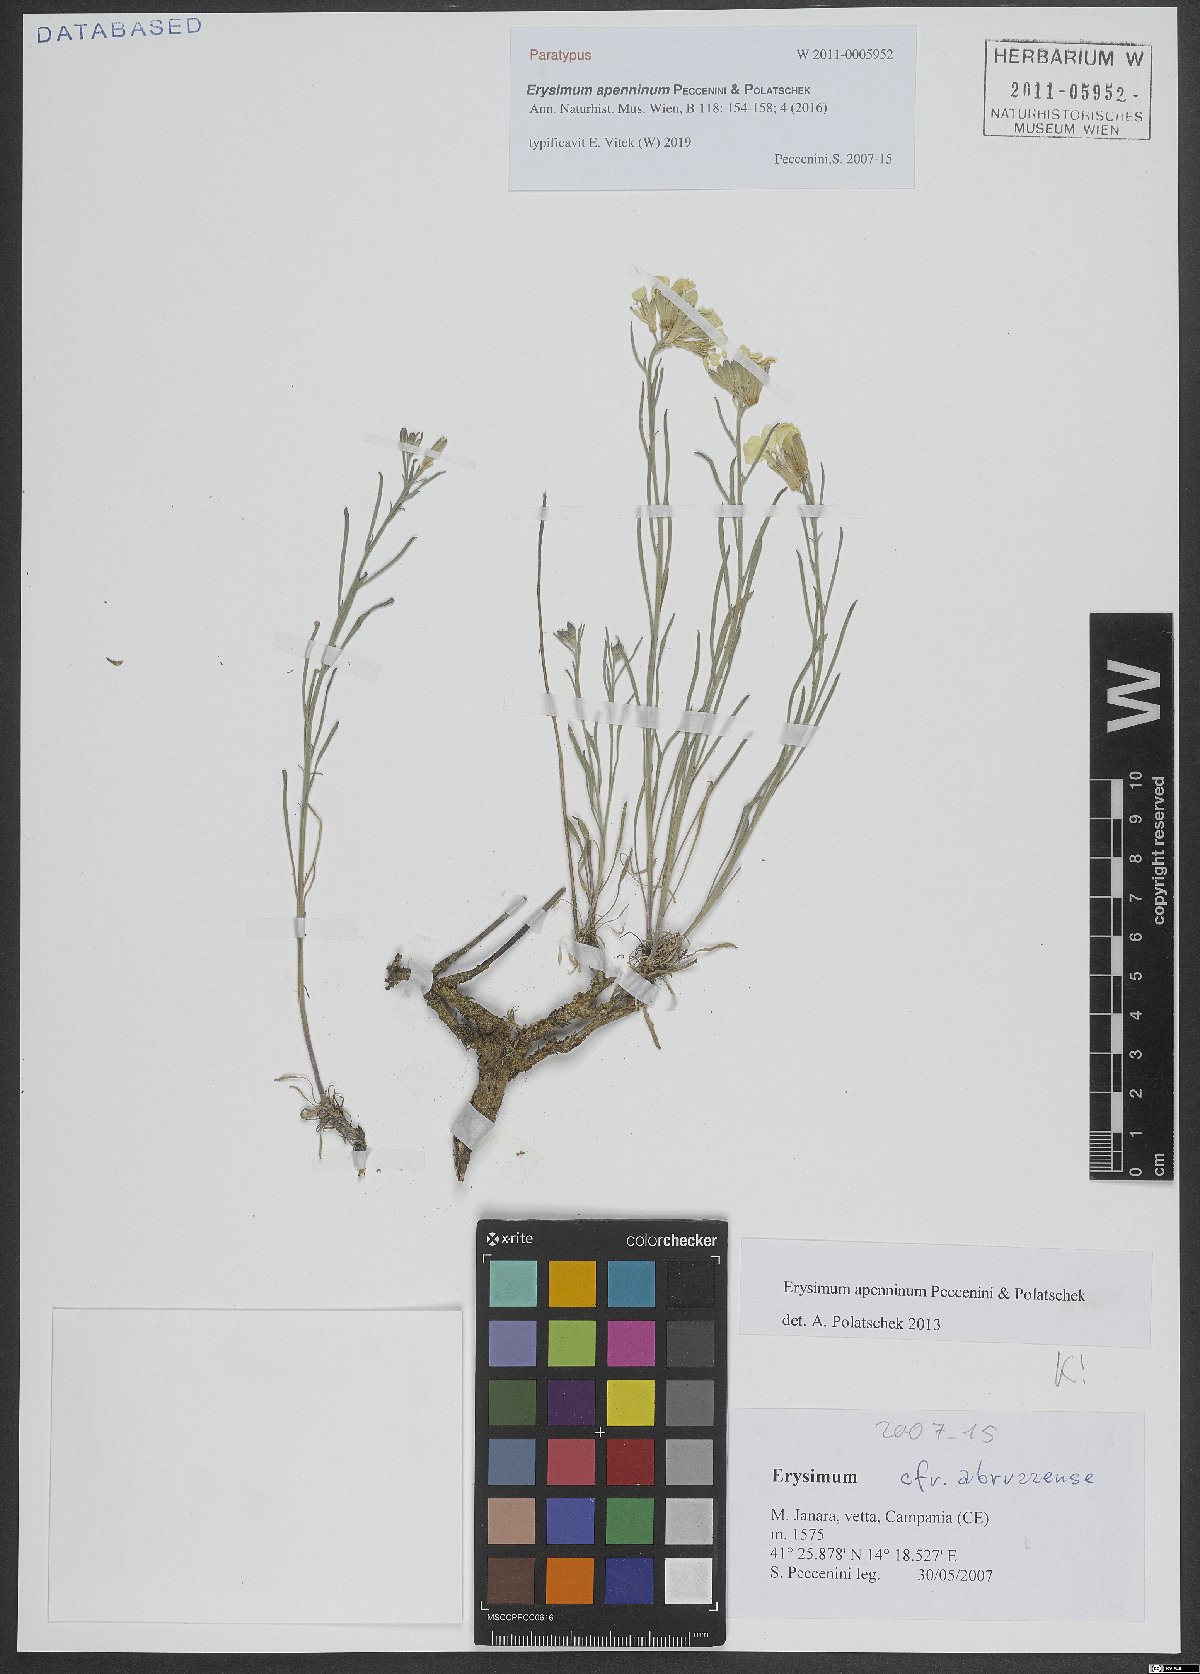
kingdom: Plantae
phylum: Tracheophyta
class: Magnoliopsida
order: Brassicales
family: Brassicaceae
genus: Erysimum
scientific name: Erysimum apenninum
